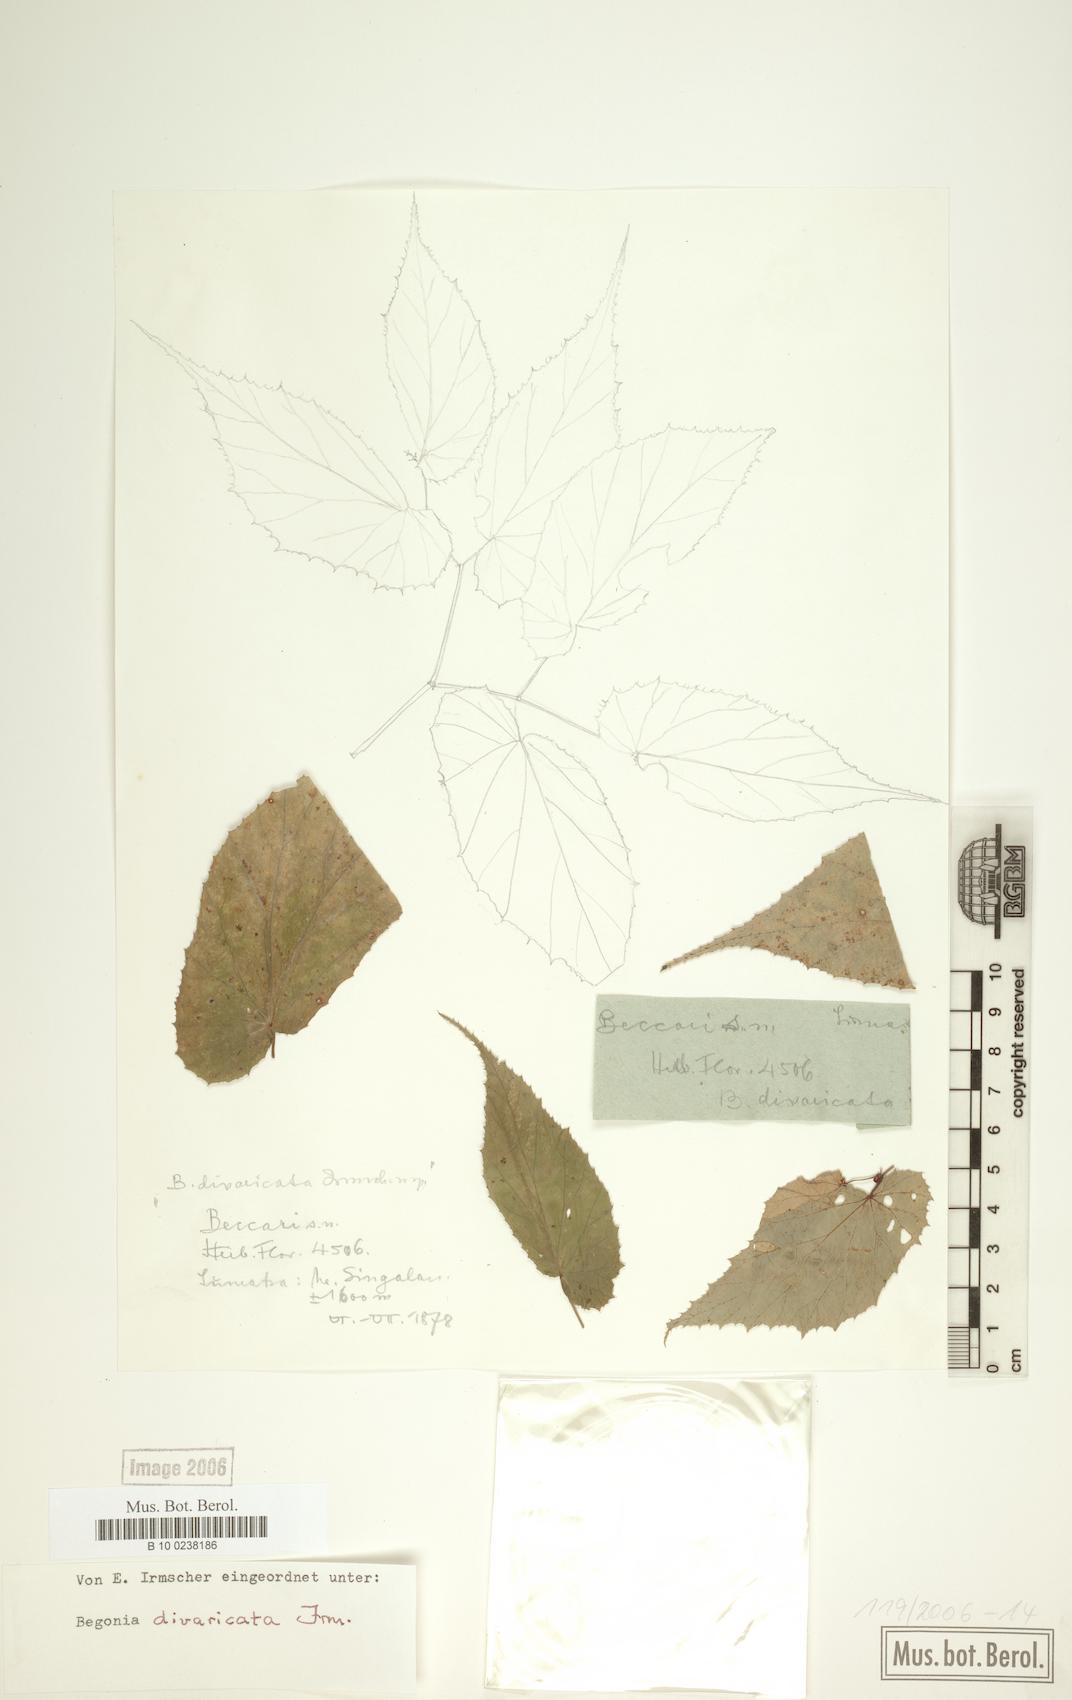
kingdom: Plantae
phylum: Tracheophyta
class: Magnoliopsida
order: Cucurbitales
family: Begoniaceae
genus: Begonia
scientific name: Begonia divaricata
